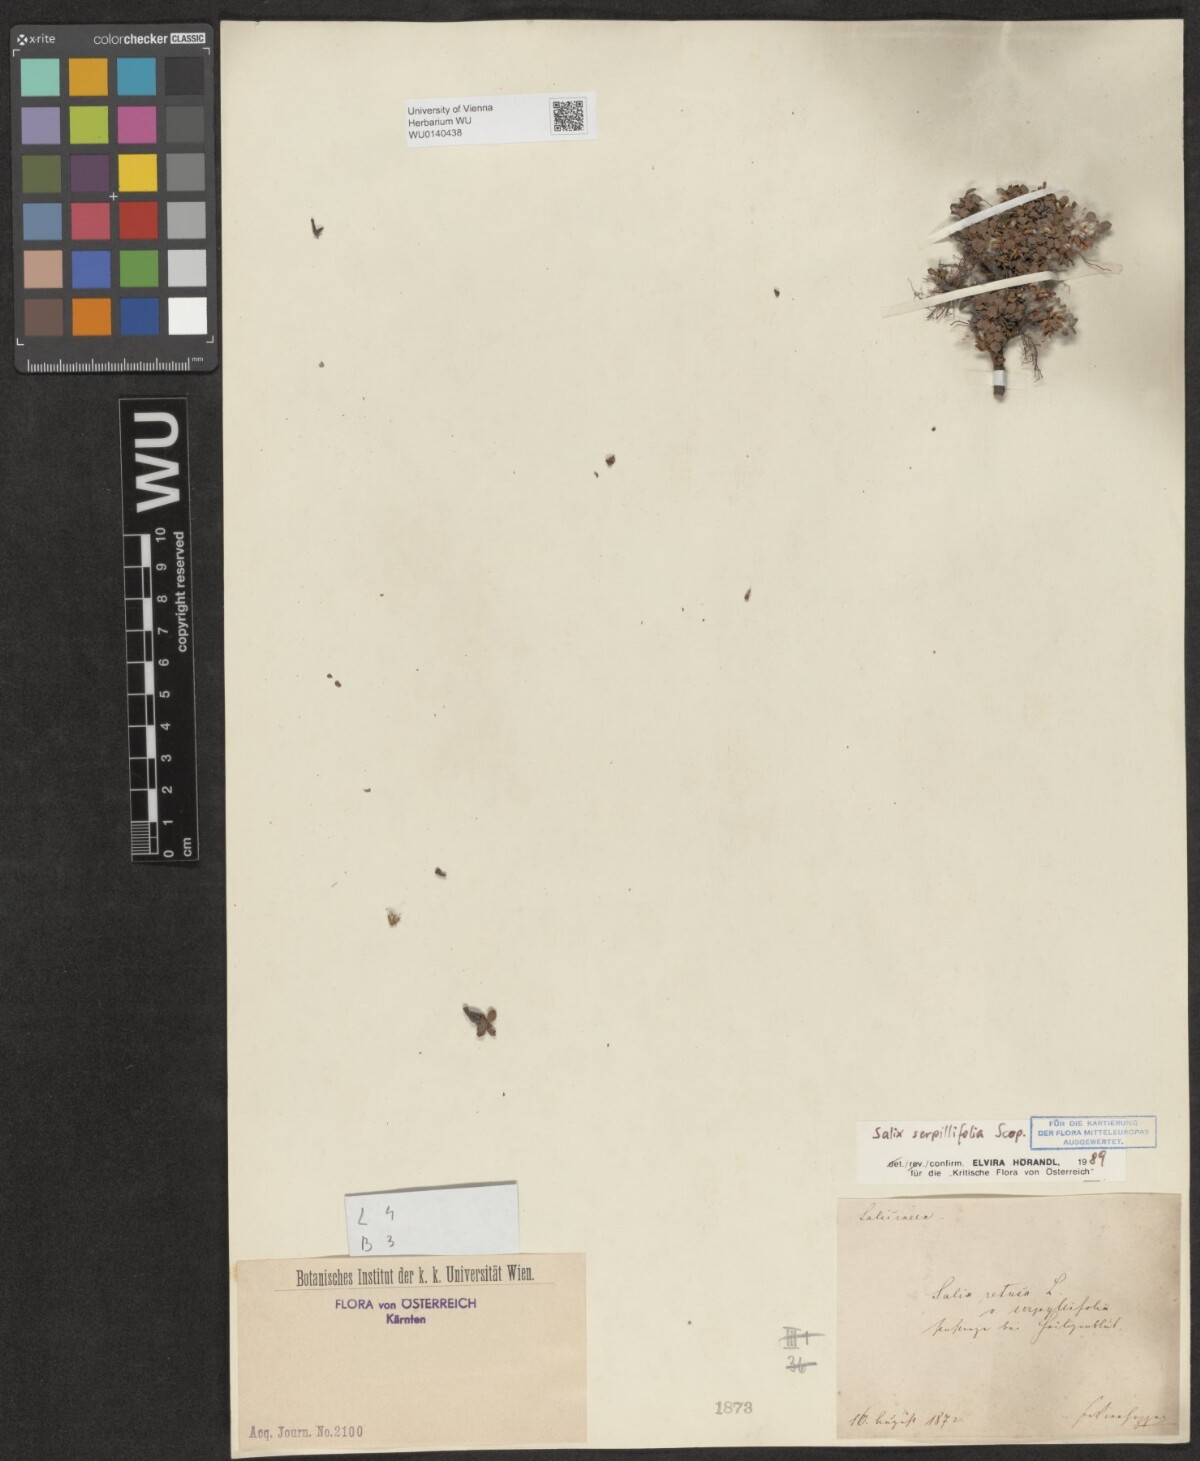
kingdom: Plantae
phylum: Tracheophyta
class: Magnoliopsida
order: Malpighiales
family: Salicaceae
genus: Salix
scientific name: Salix serpillifolia
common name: Thyme-leaf willow
